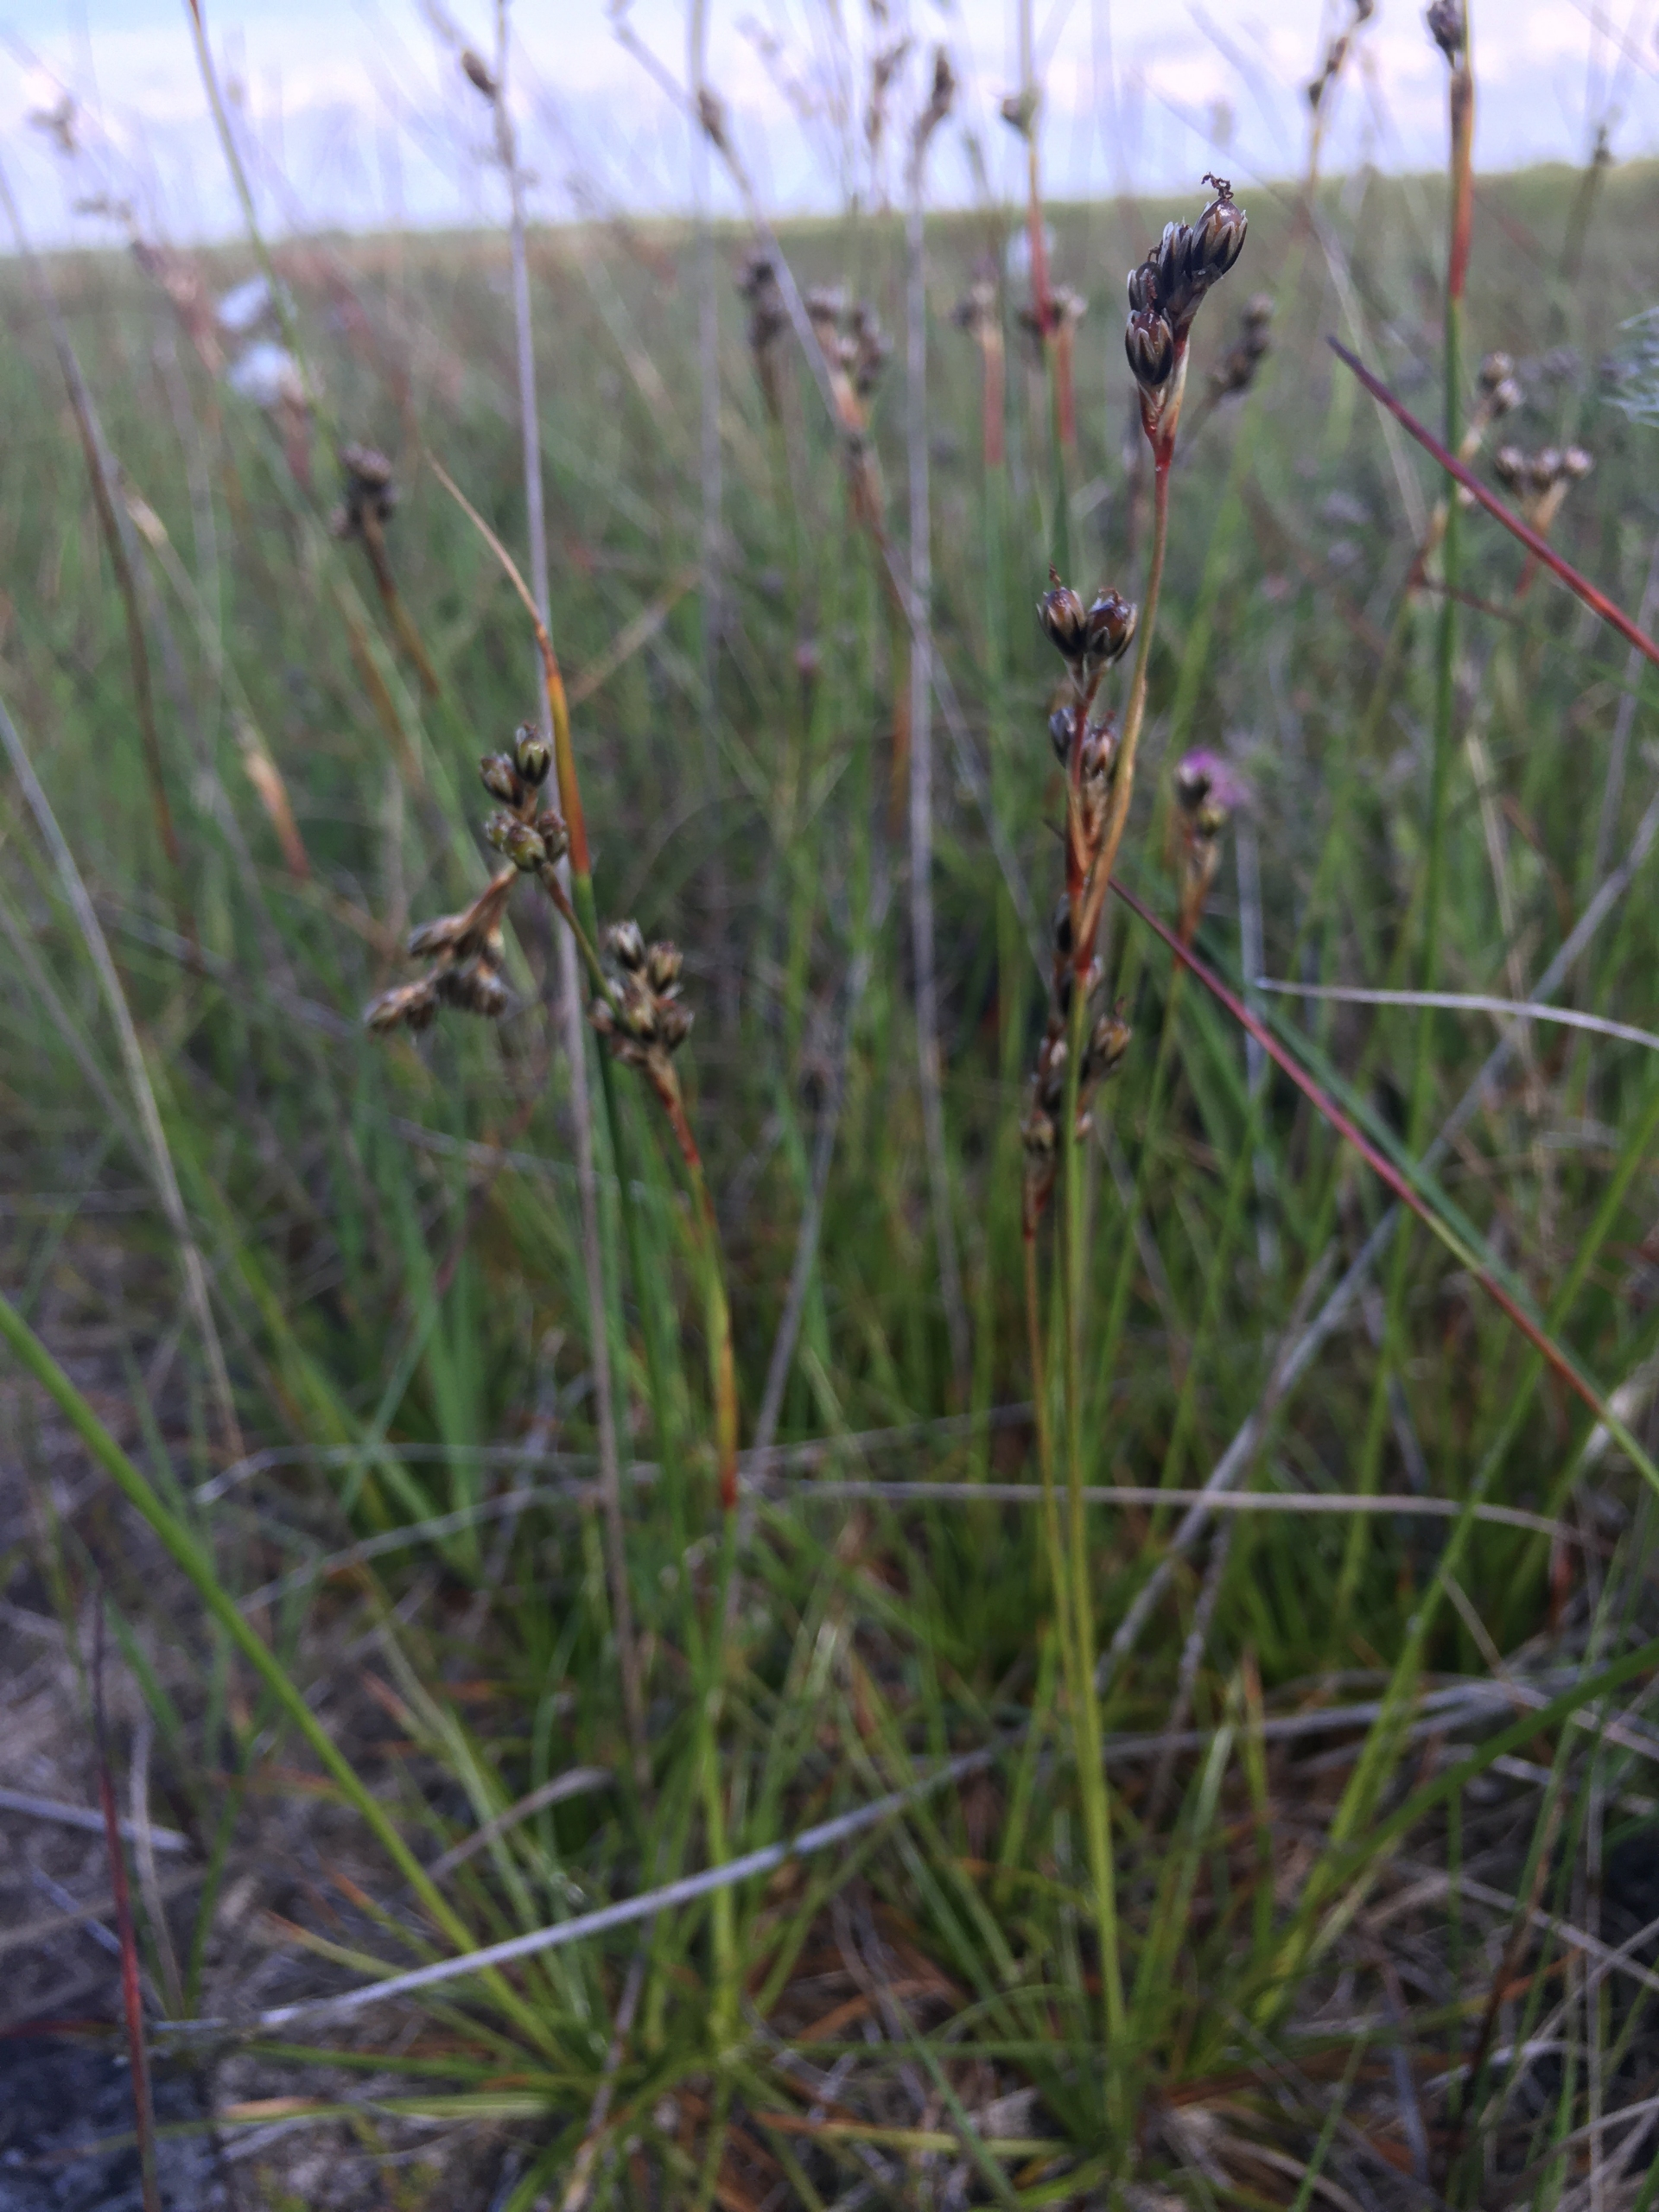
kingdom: Plantae
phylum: Tracheophyta
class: Liliopsida
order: Poales
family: Juncaceae
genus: Juncus
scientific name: Juncus squarrosus
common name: Børste-siv
